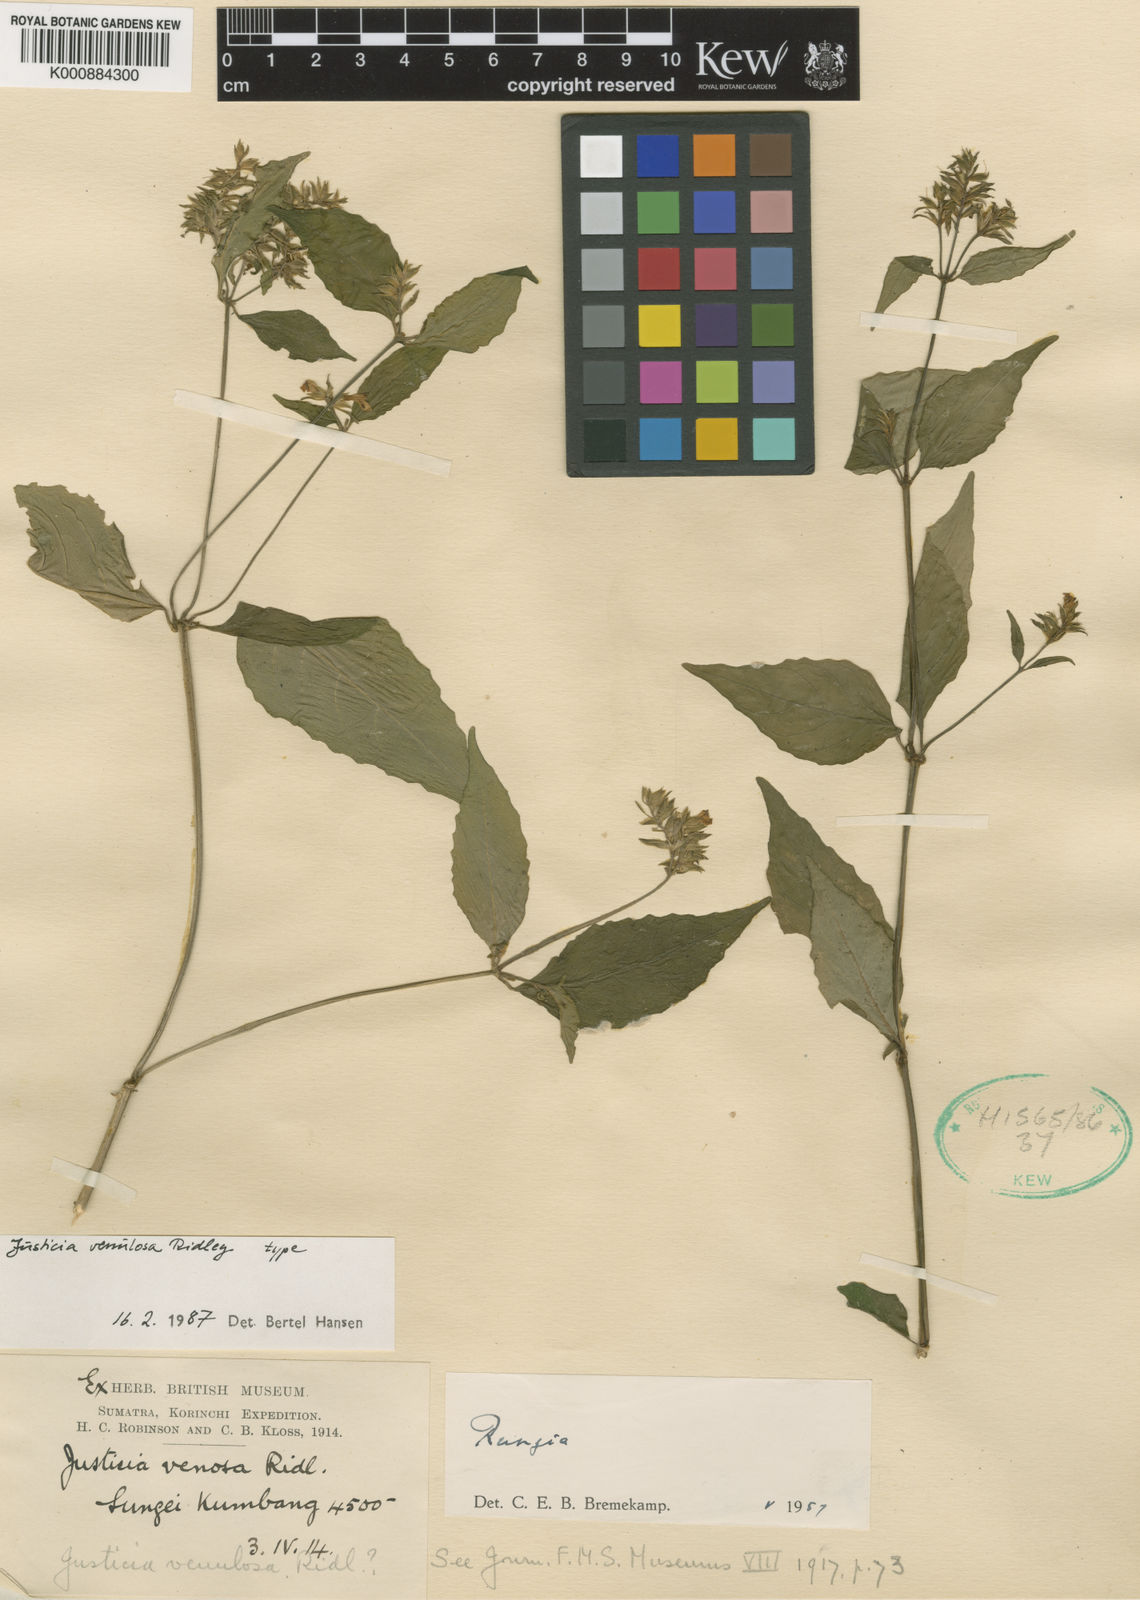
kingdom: Plantae
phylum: Tracheophyta
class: Magnoliopsida
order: Lamiales
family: Acanthaceae
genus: Justicia
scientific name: Justicia venulosa
